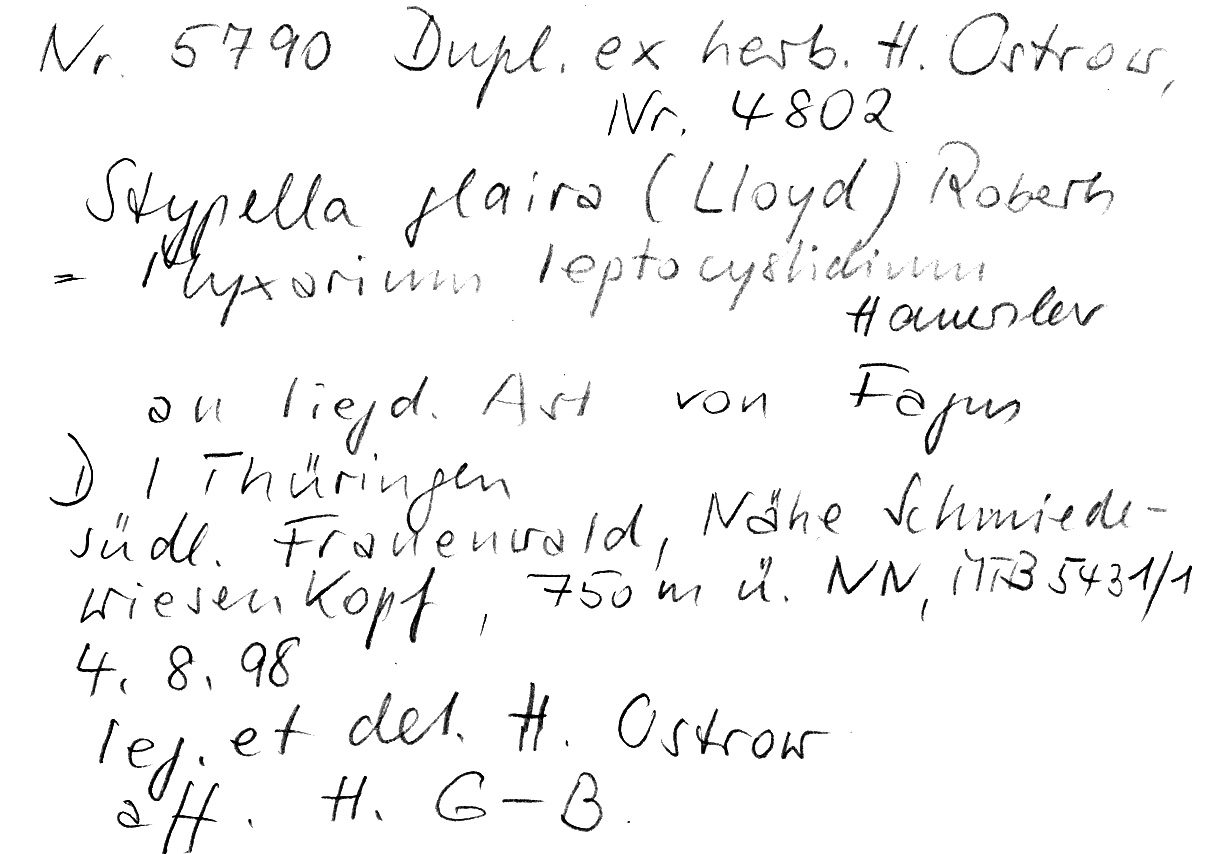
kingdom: Fungi
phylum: Basidiomycota
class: Agaricomycetes
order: Auriculariales
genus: Ofella
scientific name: Ofella glaira
